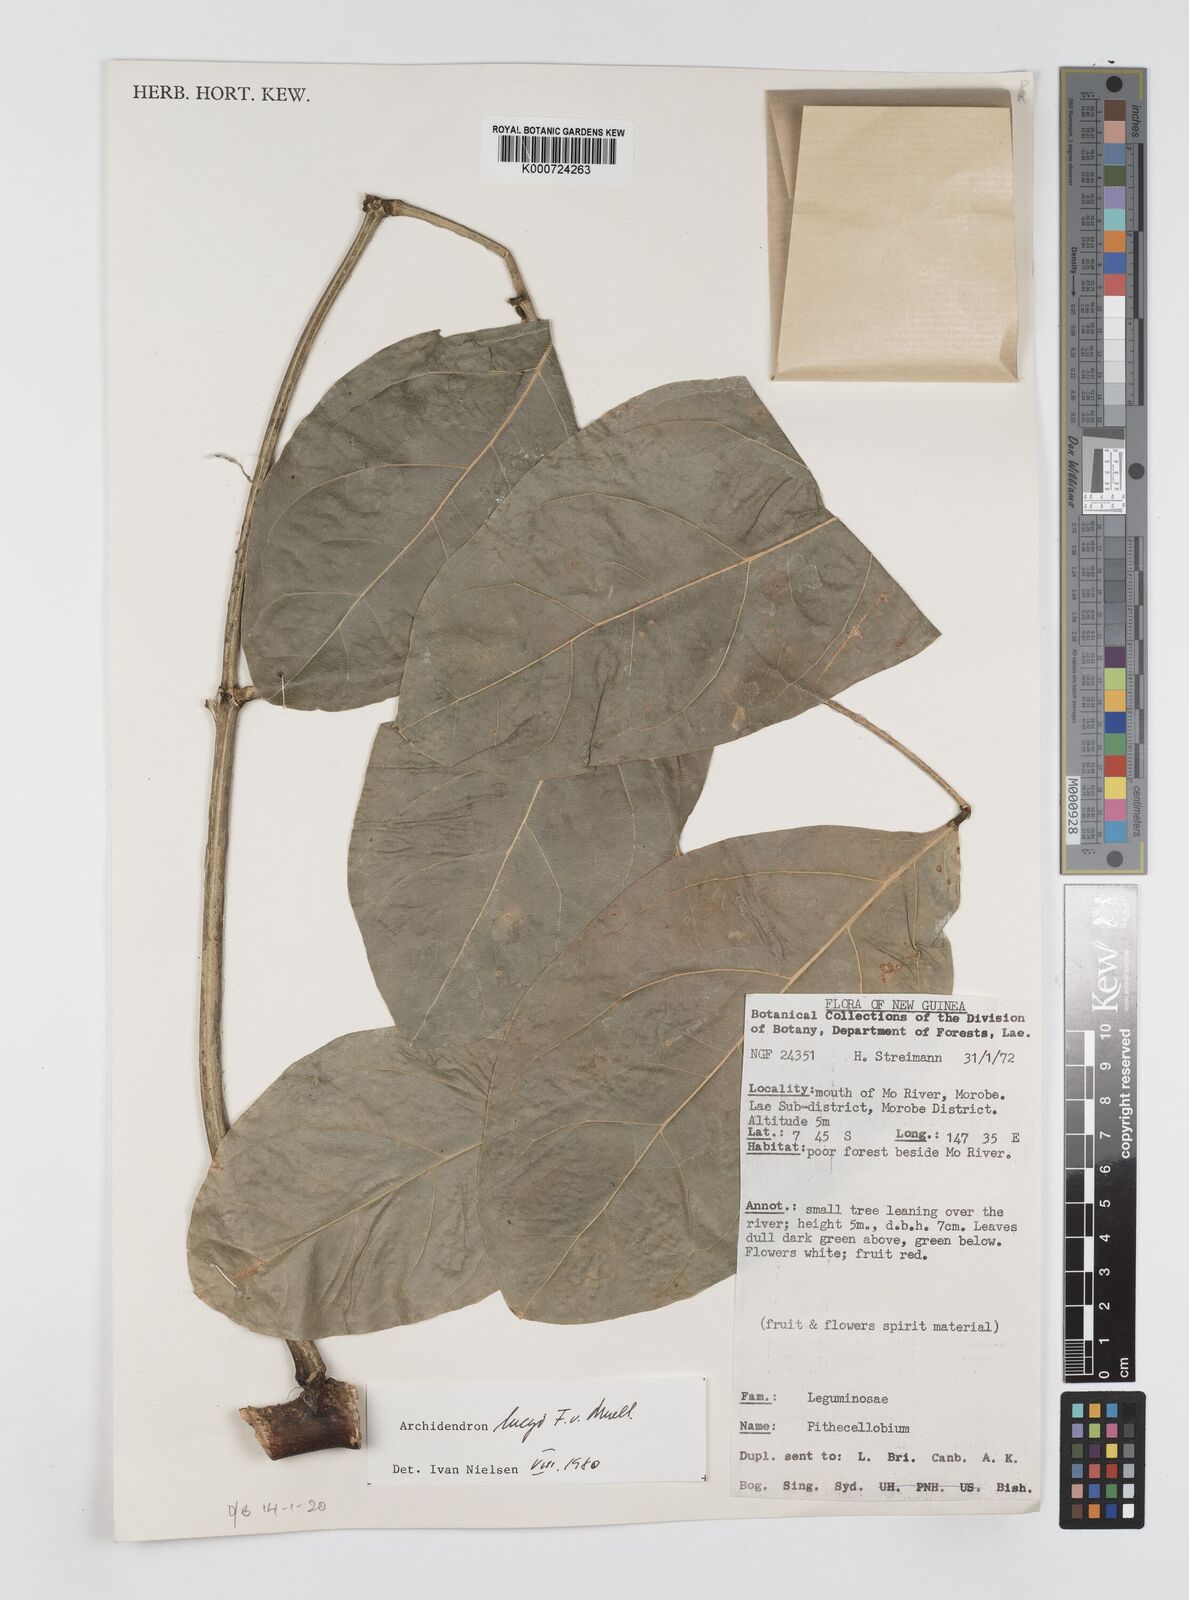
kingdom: Plantae
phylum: Tracheophyta
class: Magnoliopsida
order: Fabales
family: Fabaceae
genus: Archidendron
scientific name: Archidendron lucyi
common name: Scarlet bean
